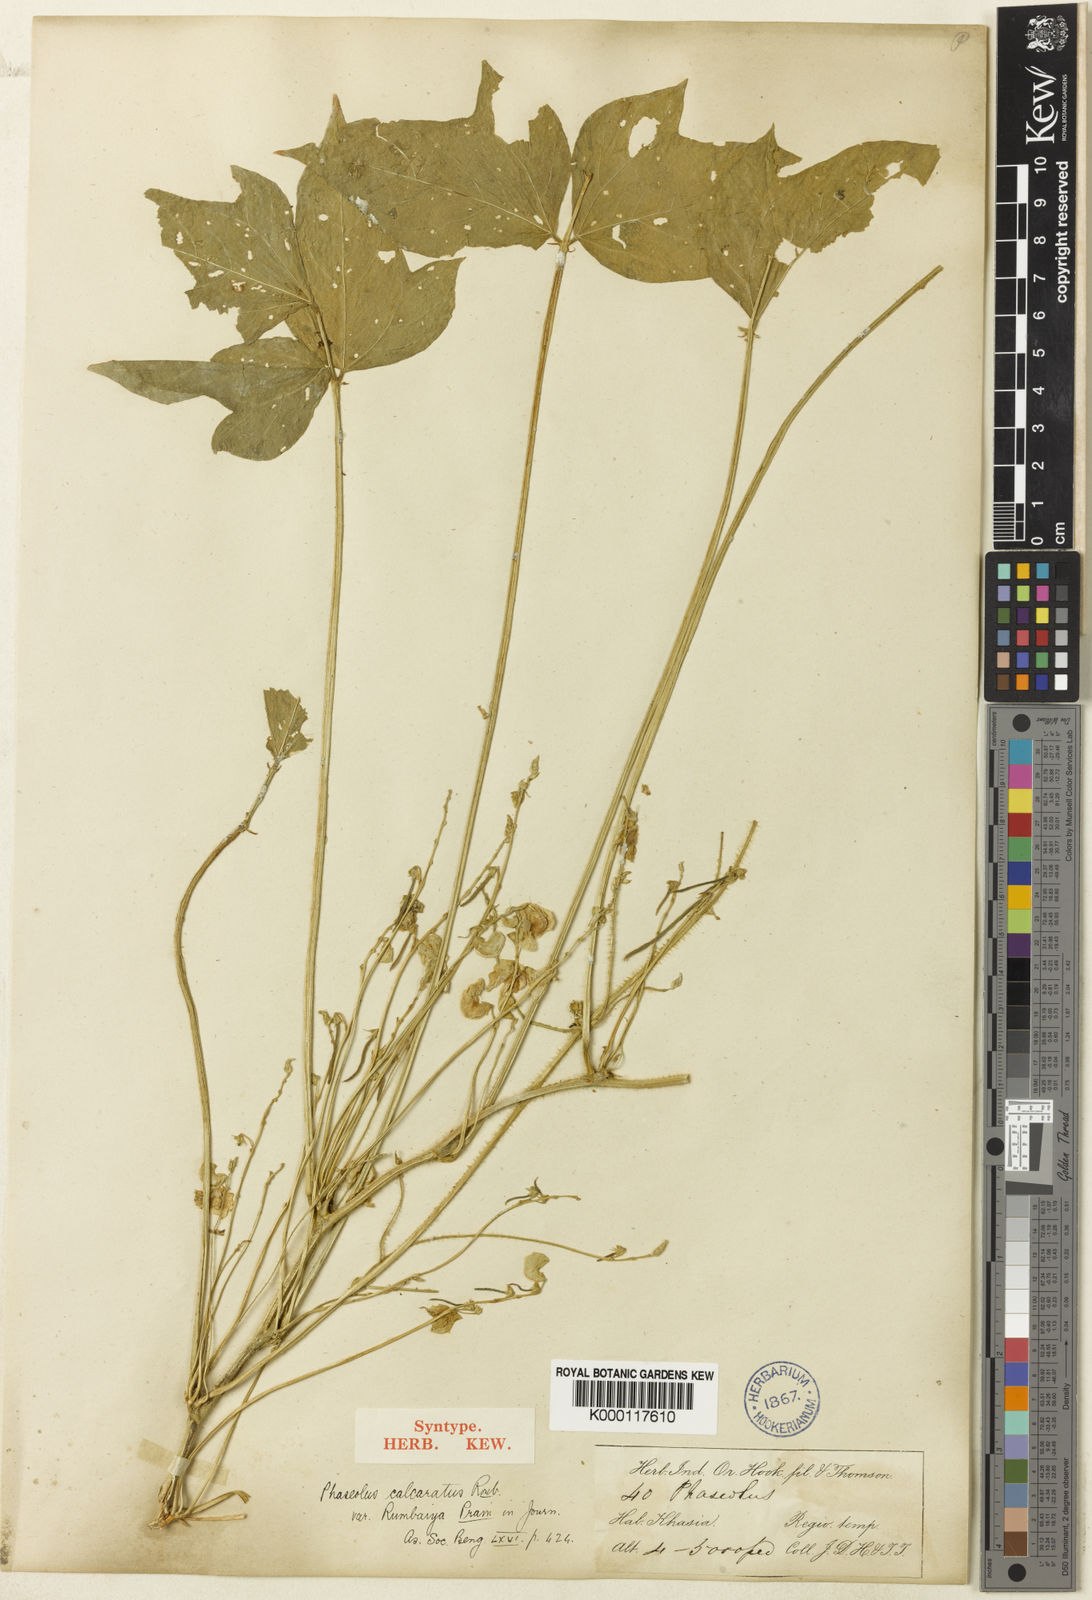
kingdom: Plantae
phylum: Tracheophyta
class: Magnoliopsida
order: Fabales
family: Fabaceae
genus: Vigna
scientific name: Vigna
